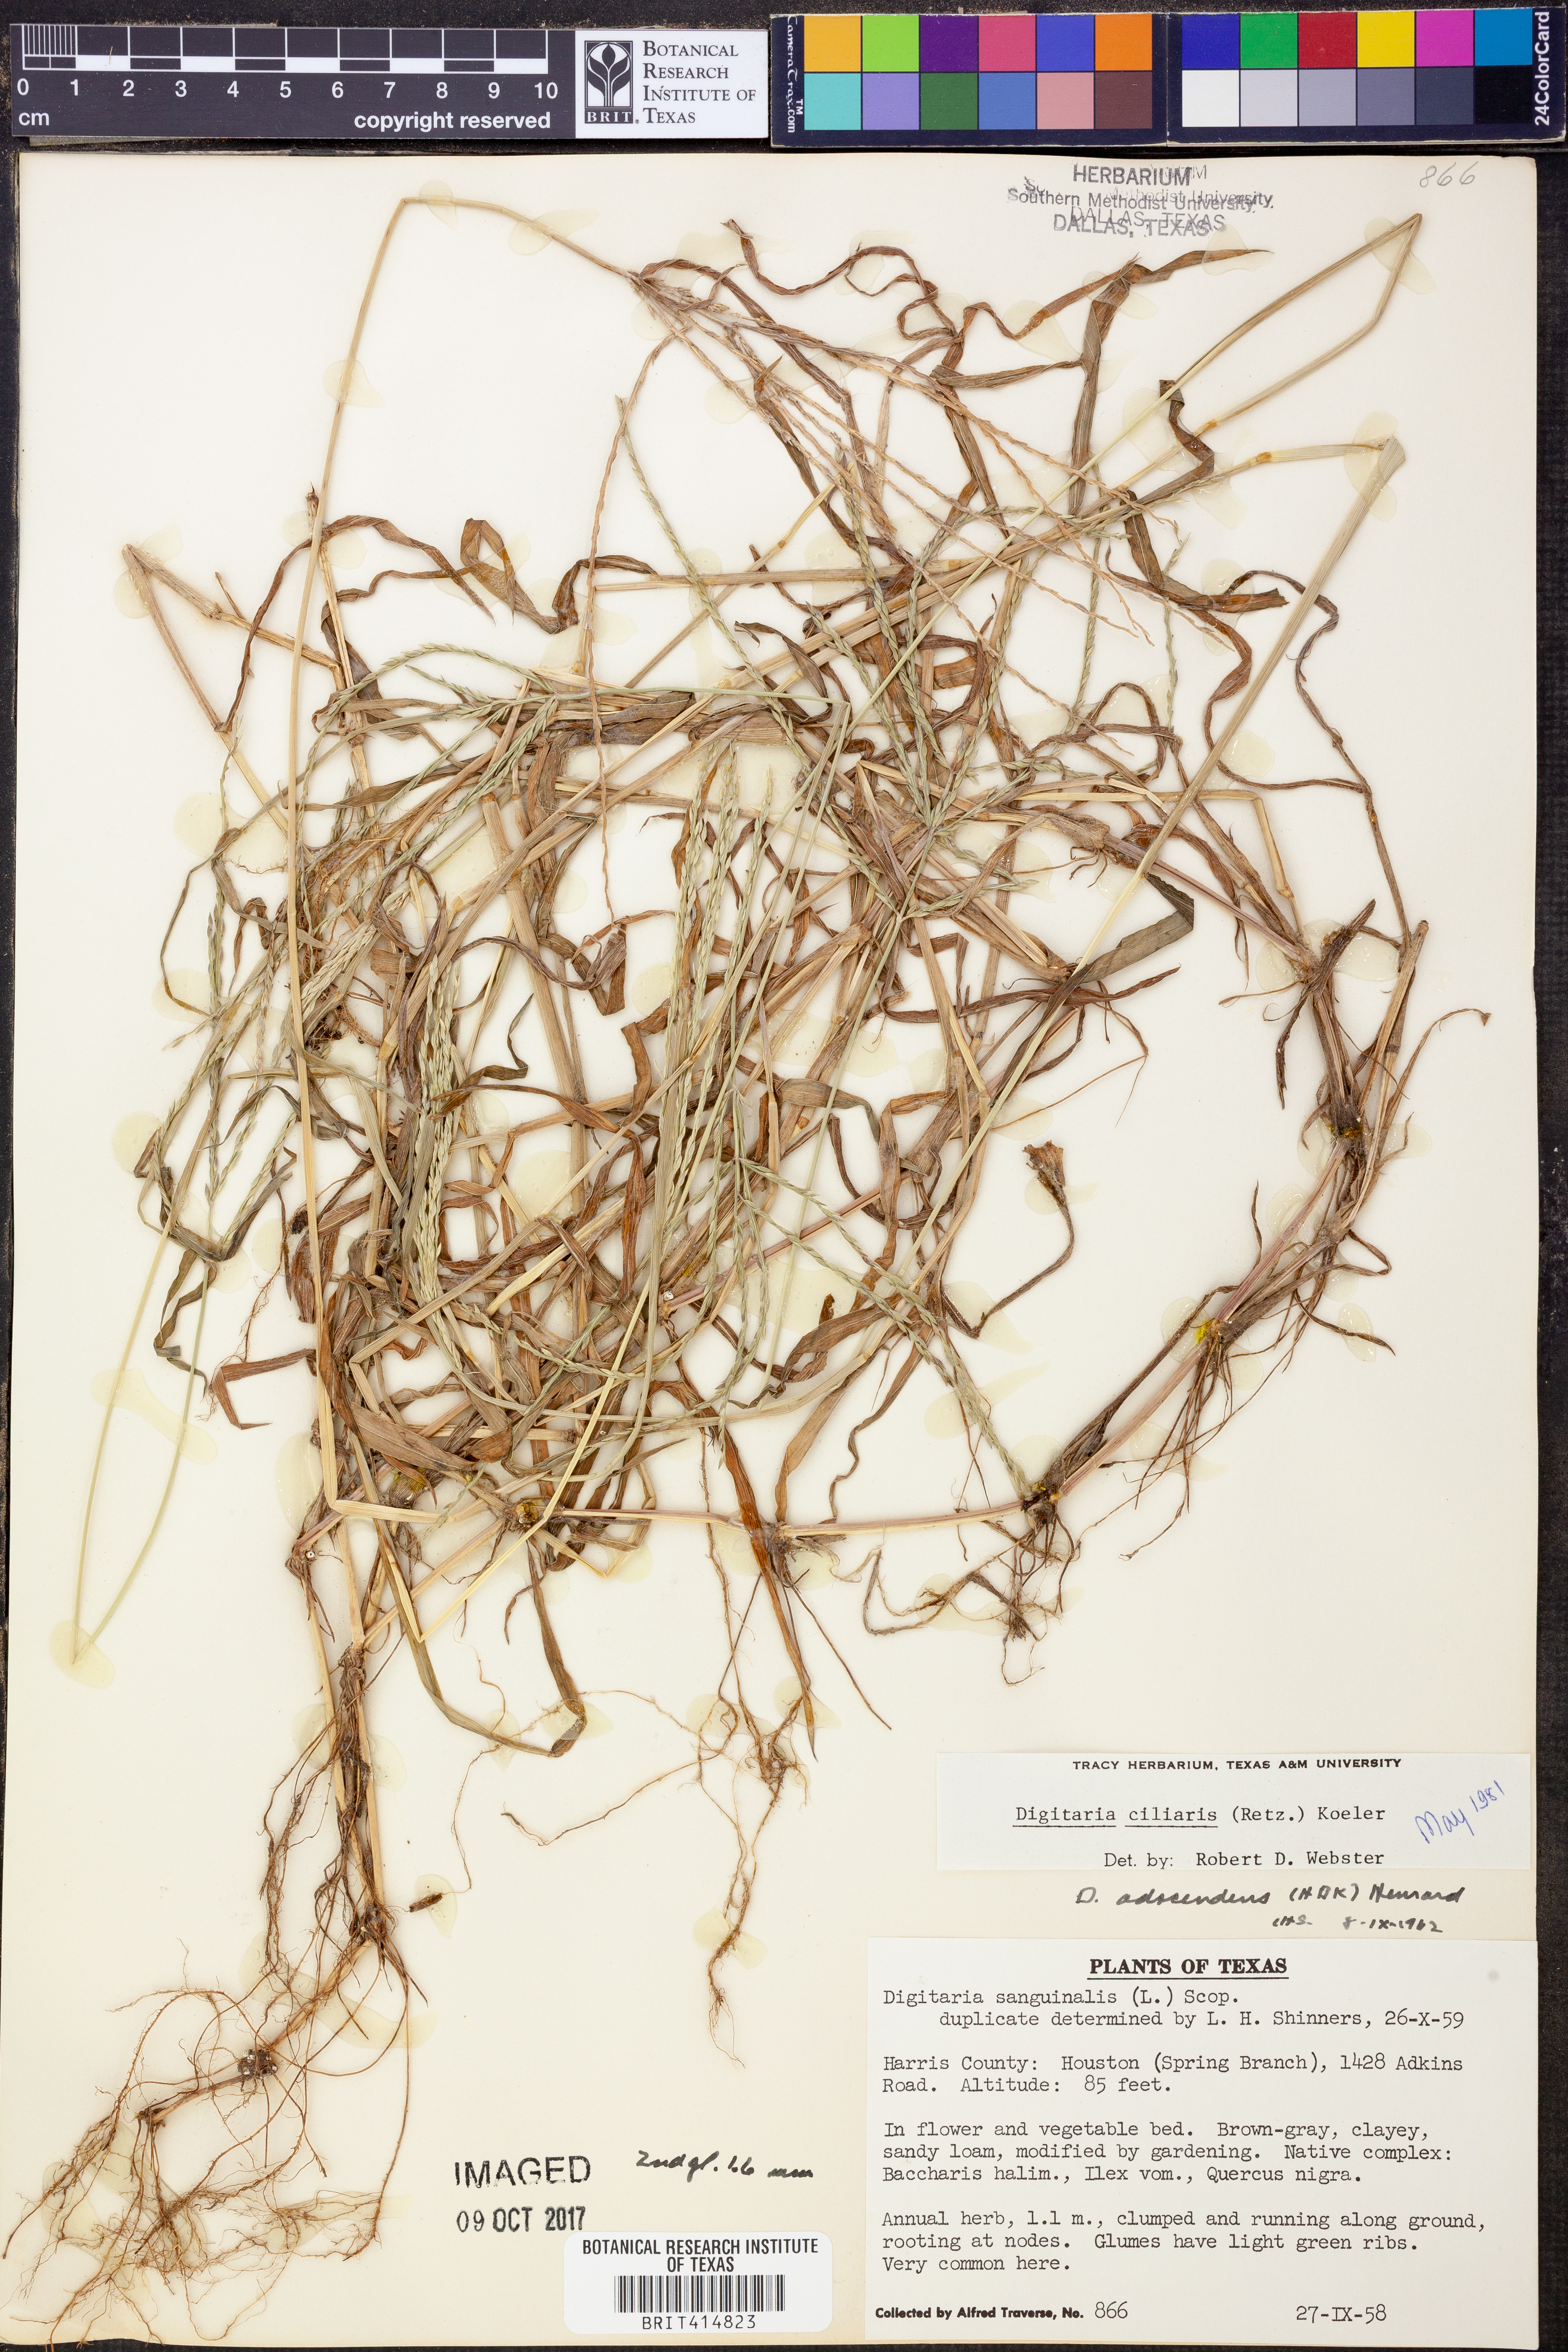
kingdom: Plantae
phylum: Tracheophyta
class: Liliopsida
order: Poales
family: Poaceae
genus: Digitaria
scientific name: Digitaria ciliaris
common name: Tropical finger-grass
